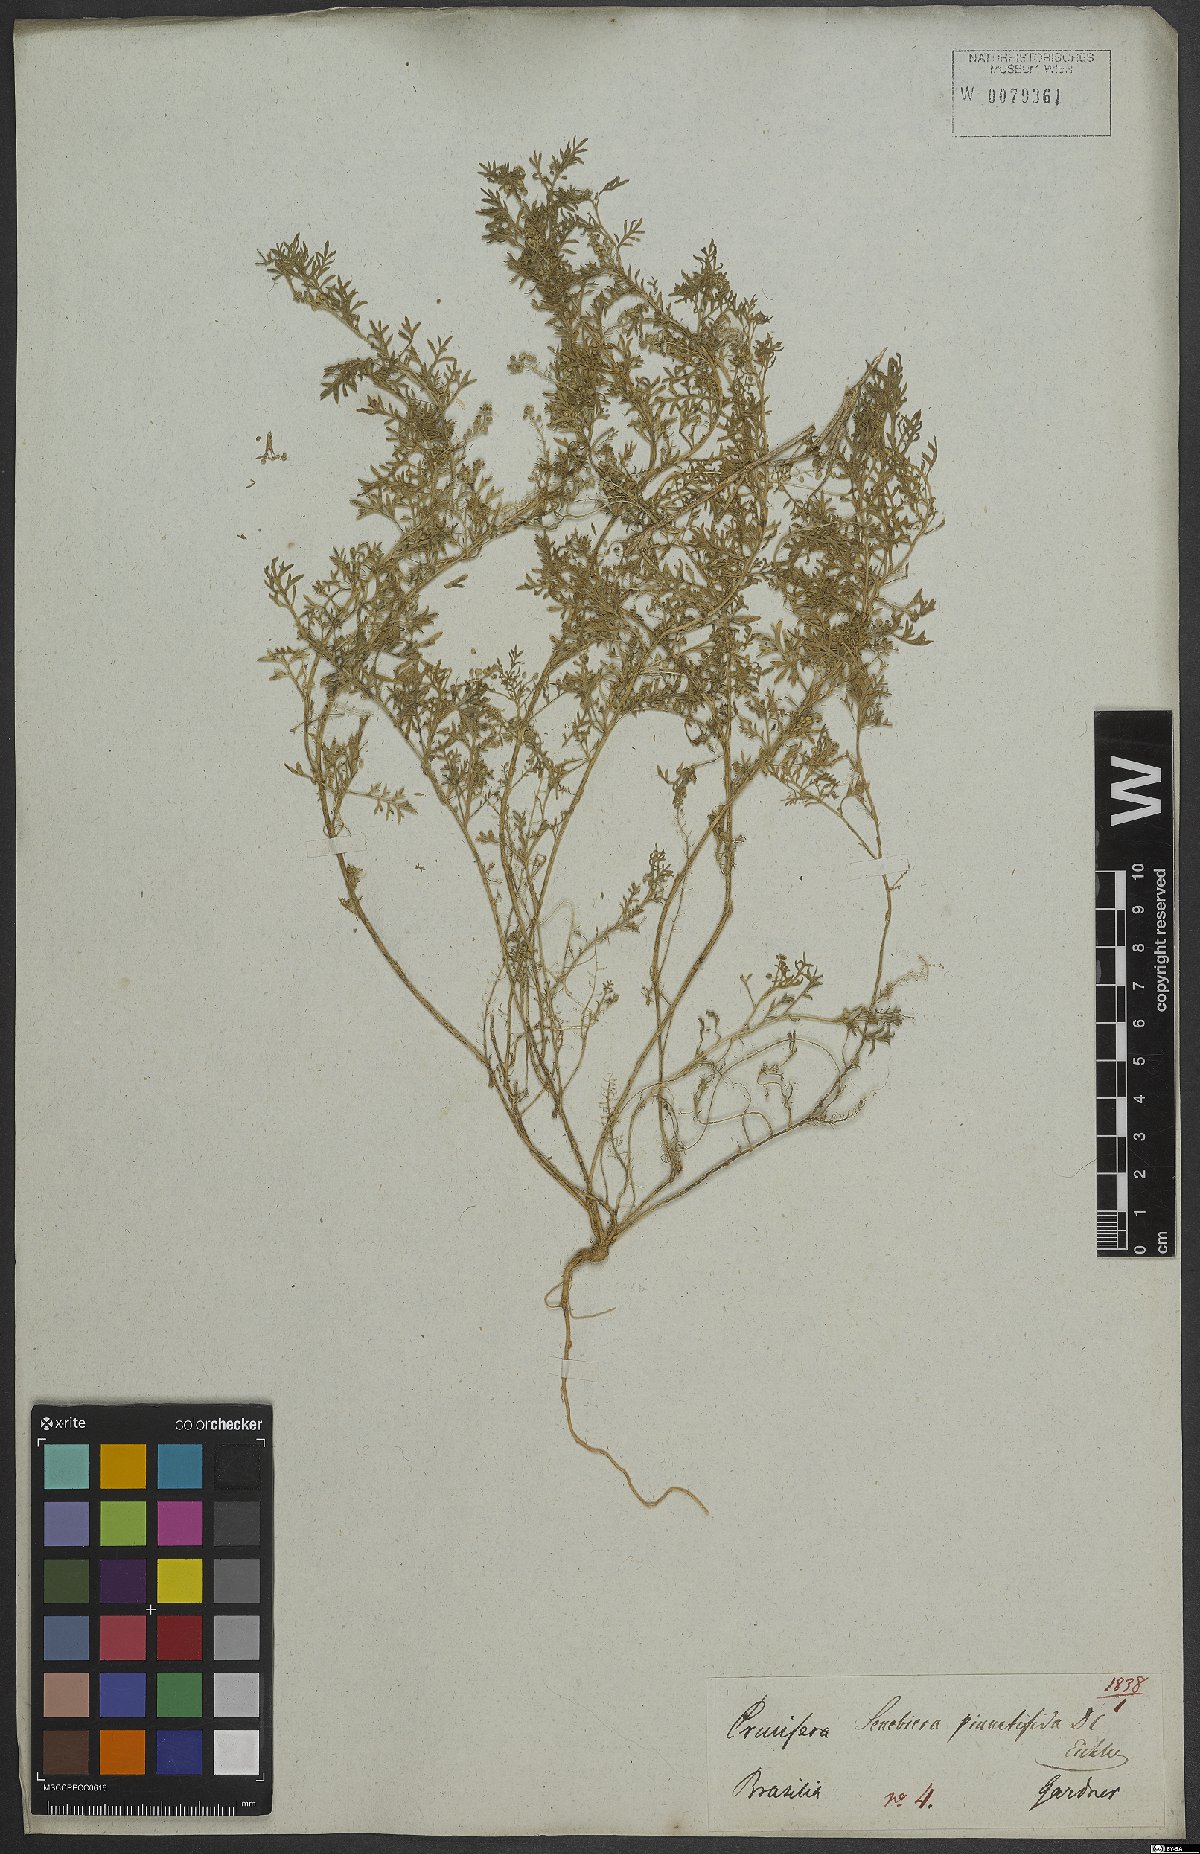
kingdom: Plantae
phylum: Tracheophyta
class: Magnoliopsida
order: Brassicales
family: Brassicaceae
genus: Lepidium
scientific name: Lepidium didymum
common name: Lesser swinecress
